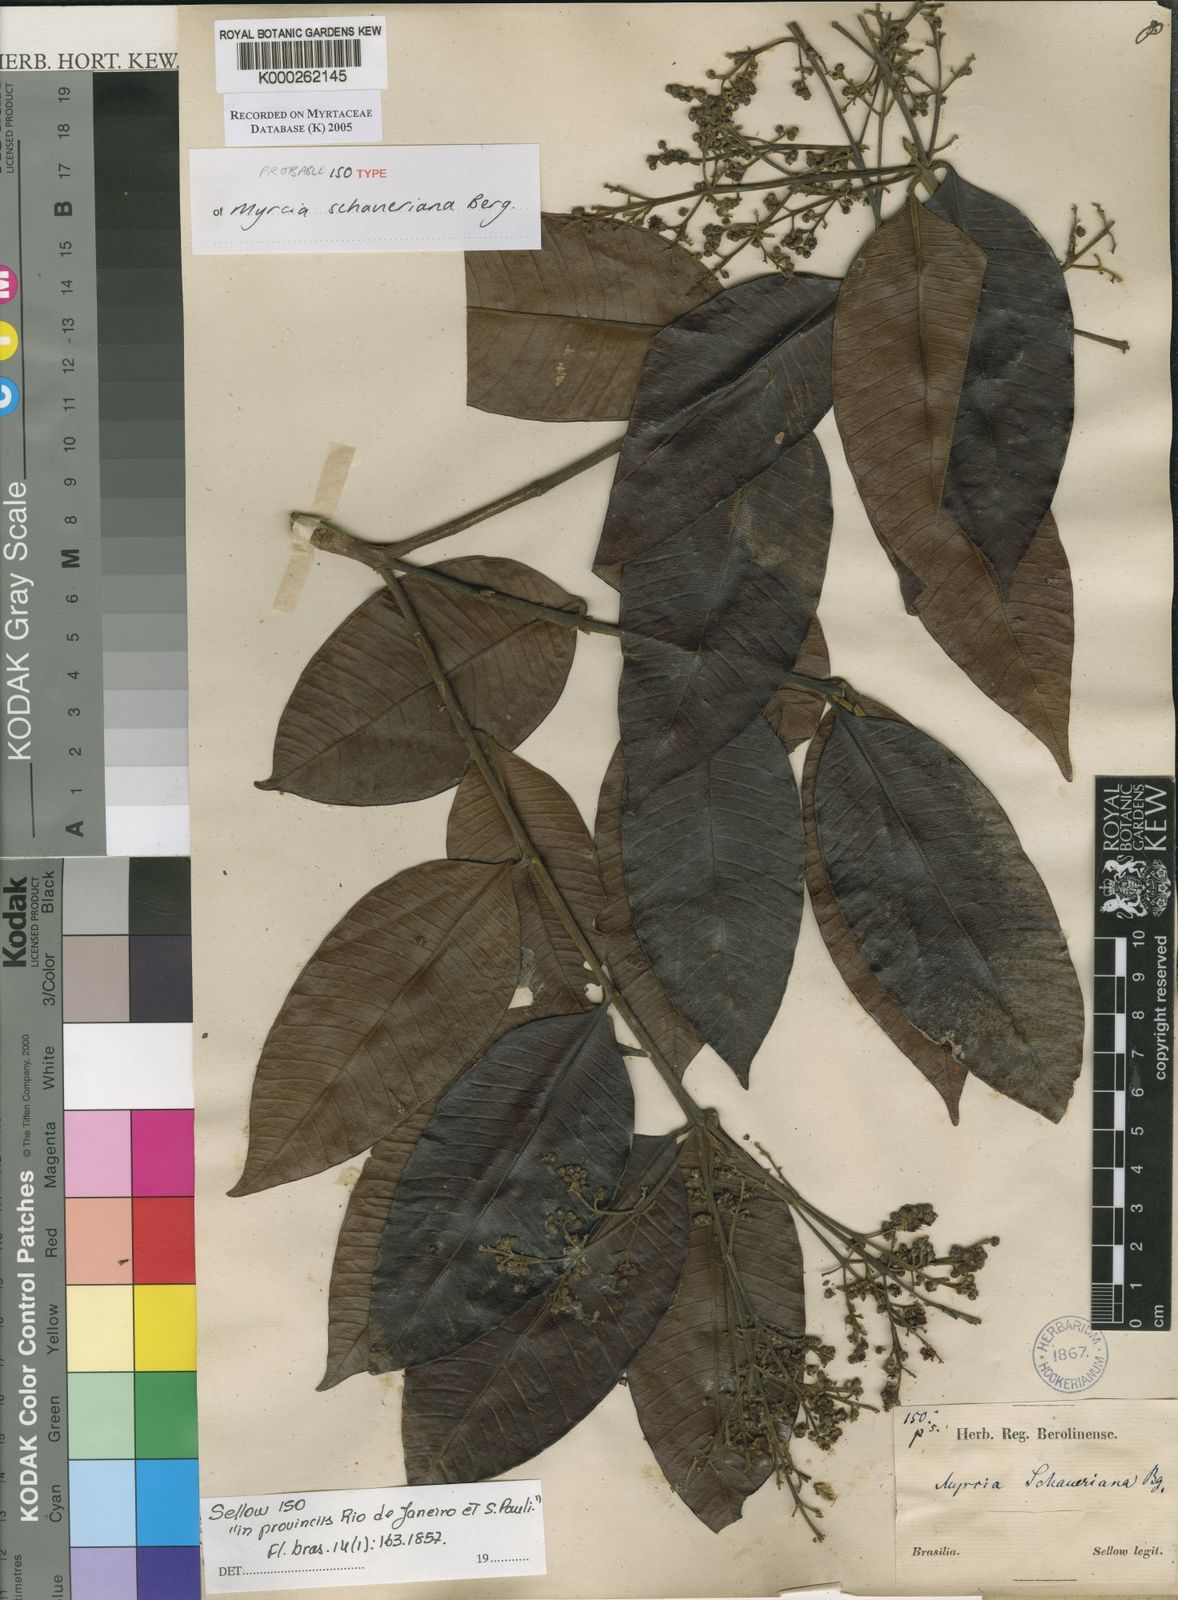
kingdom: Plantae
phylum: Tracheophyta
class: Magnoliopsida
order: Laurales
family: Lauraceae
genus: Ocotea
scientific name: Ocotea puberula
